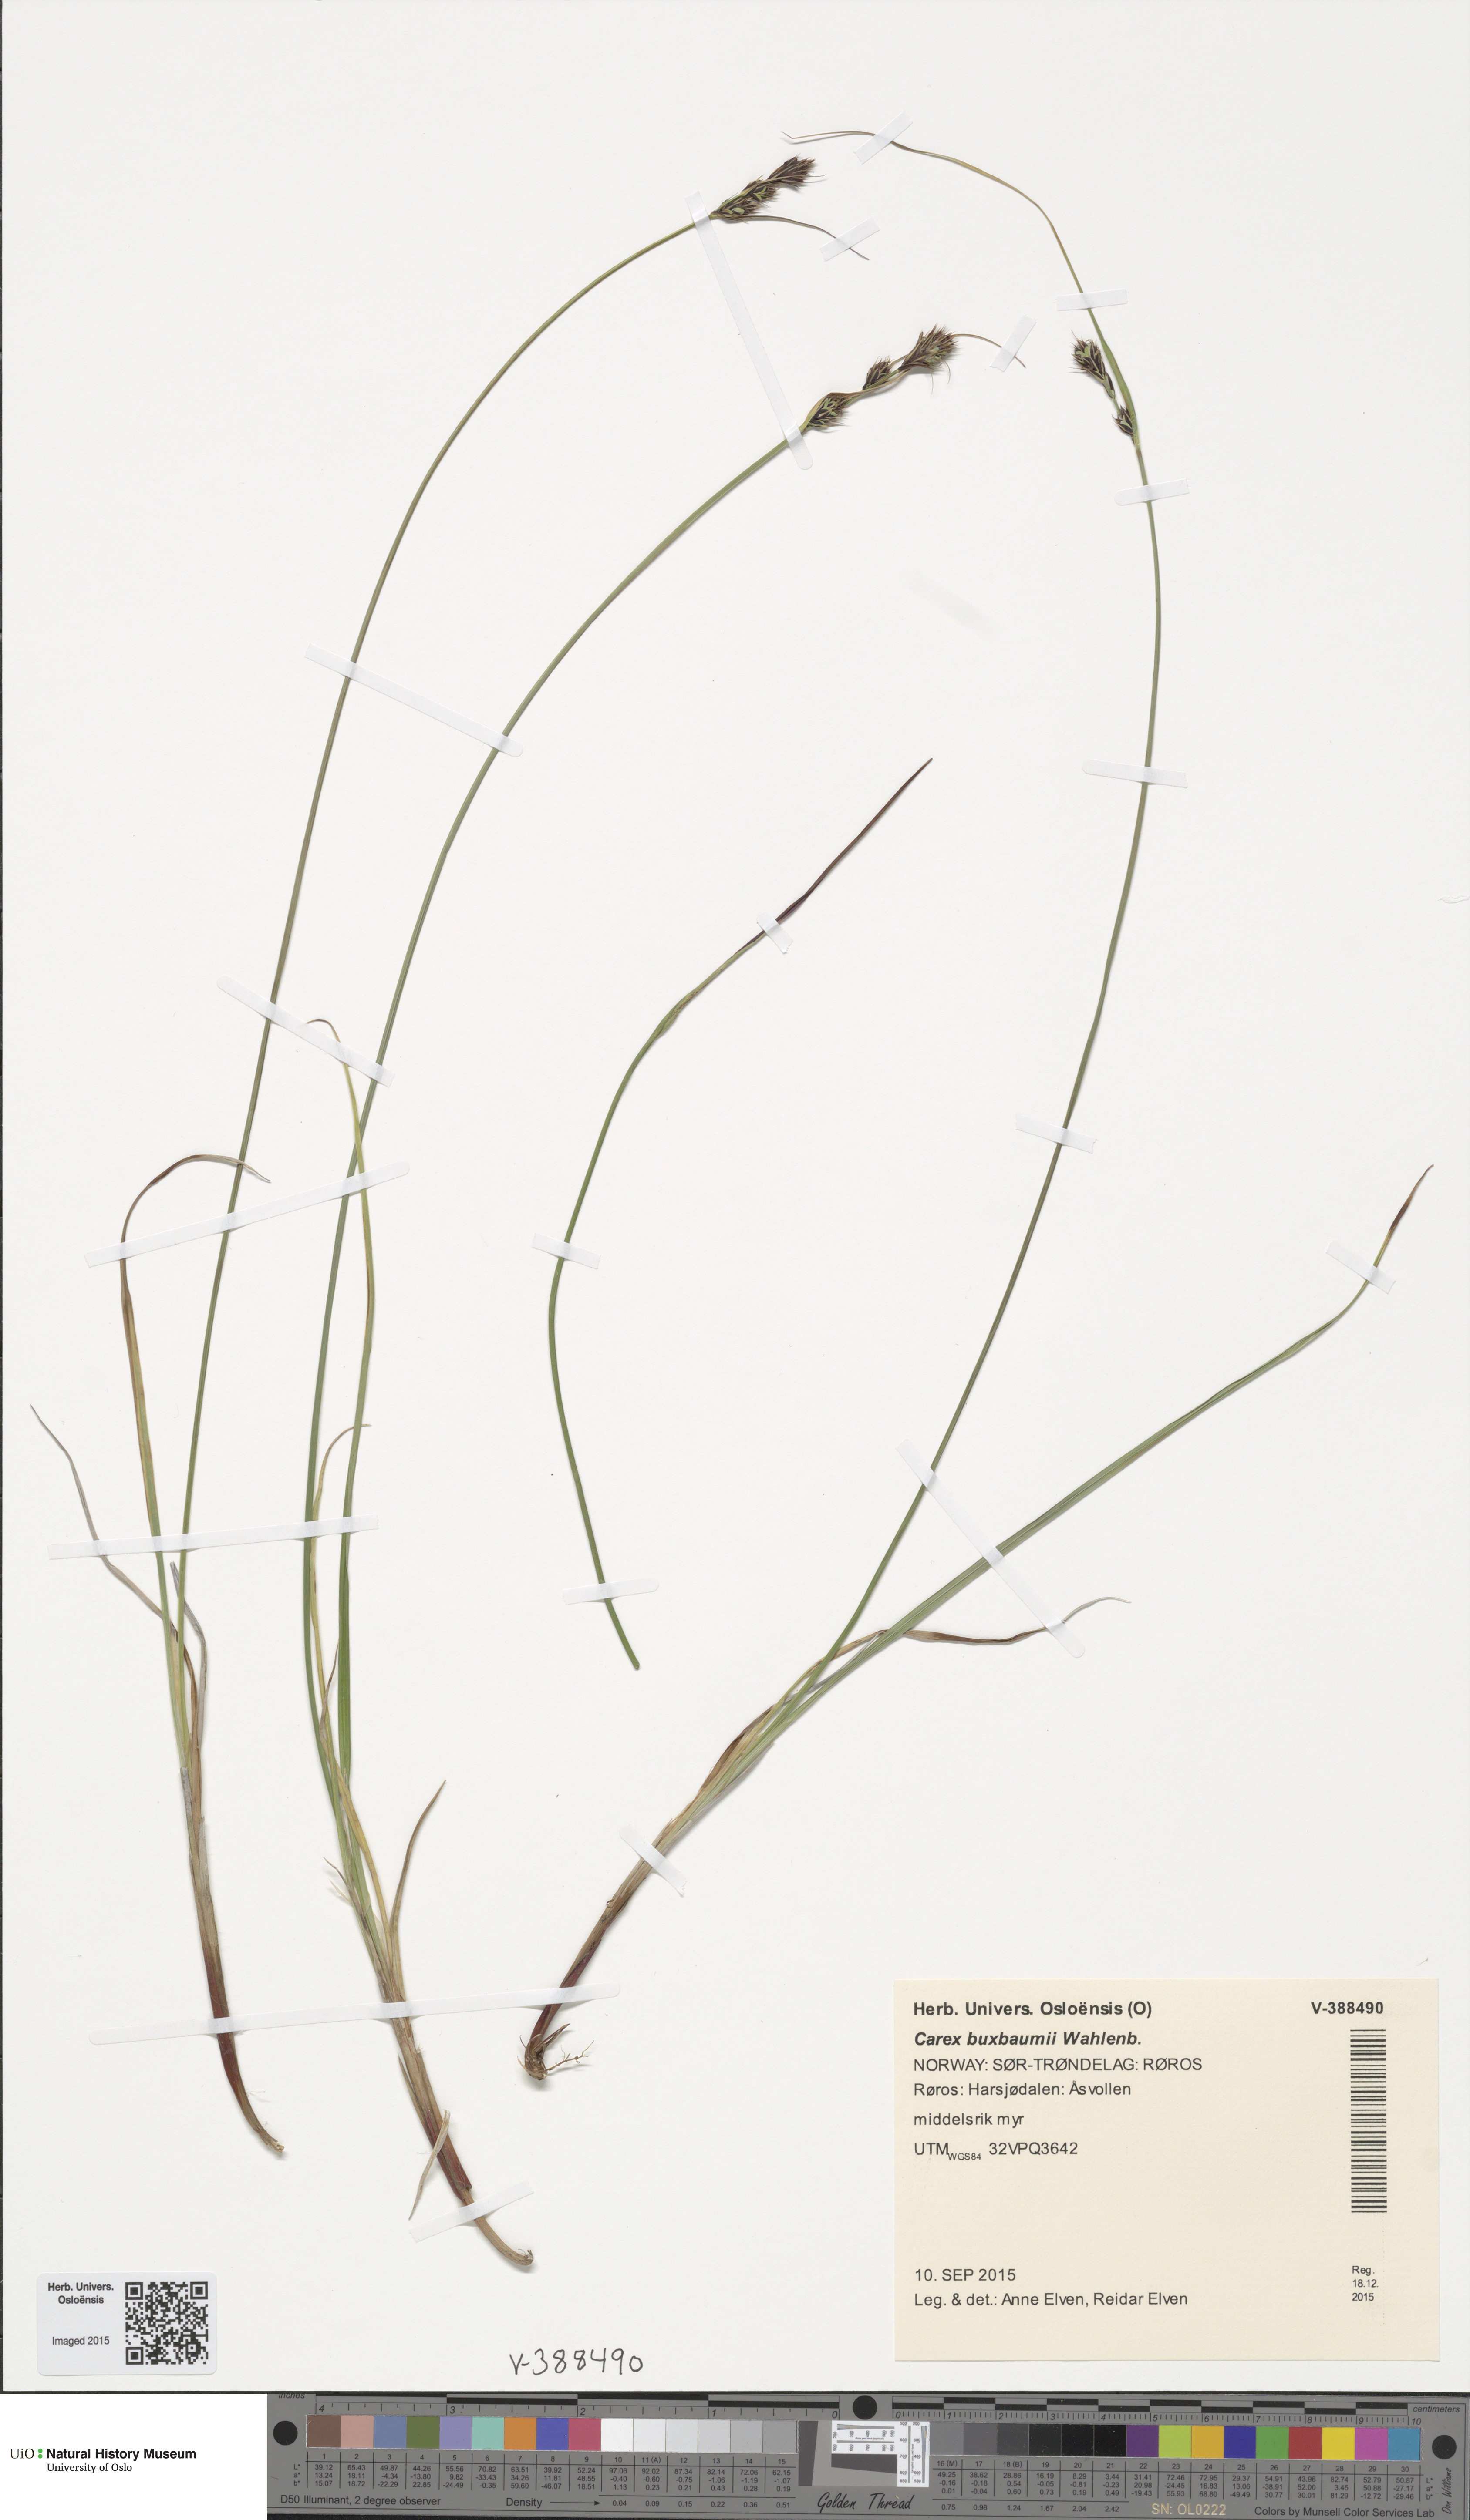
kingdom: Plantae
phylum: Tracheophyta
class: Liliopsida
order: Poales
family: Cyperaceae
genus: Carex
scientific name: Carex buxbaumii
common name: Club sedge
